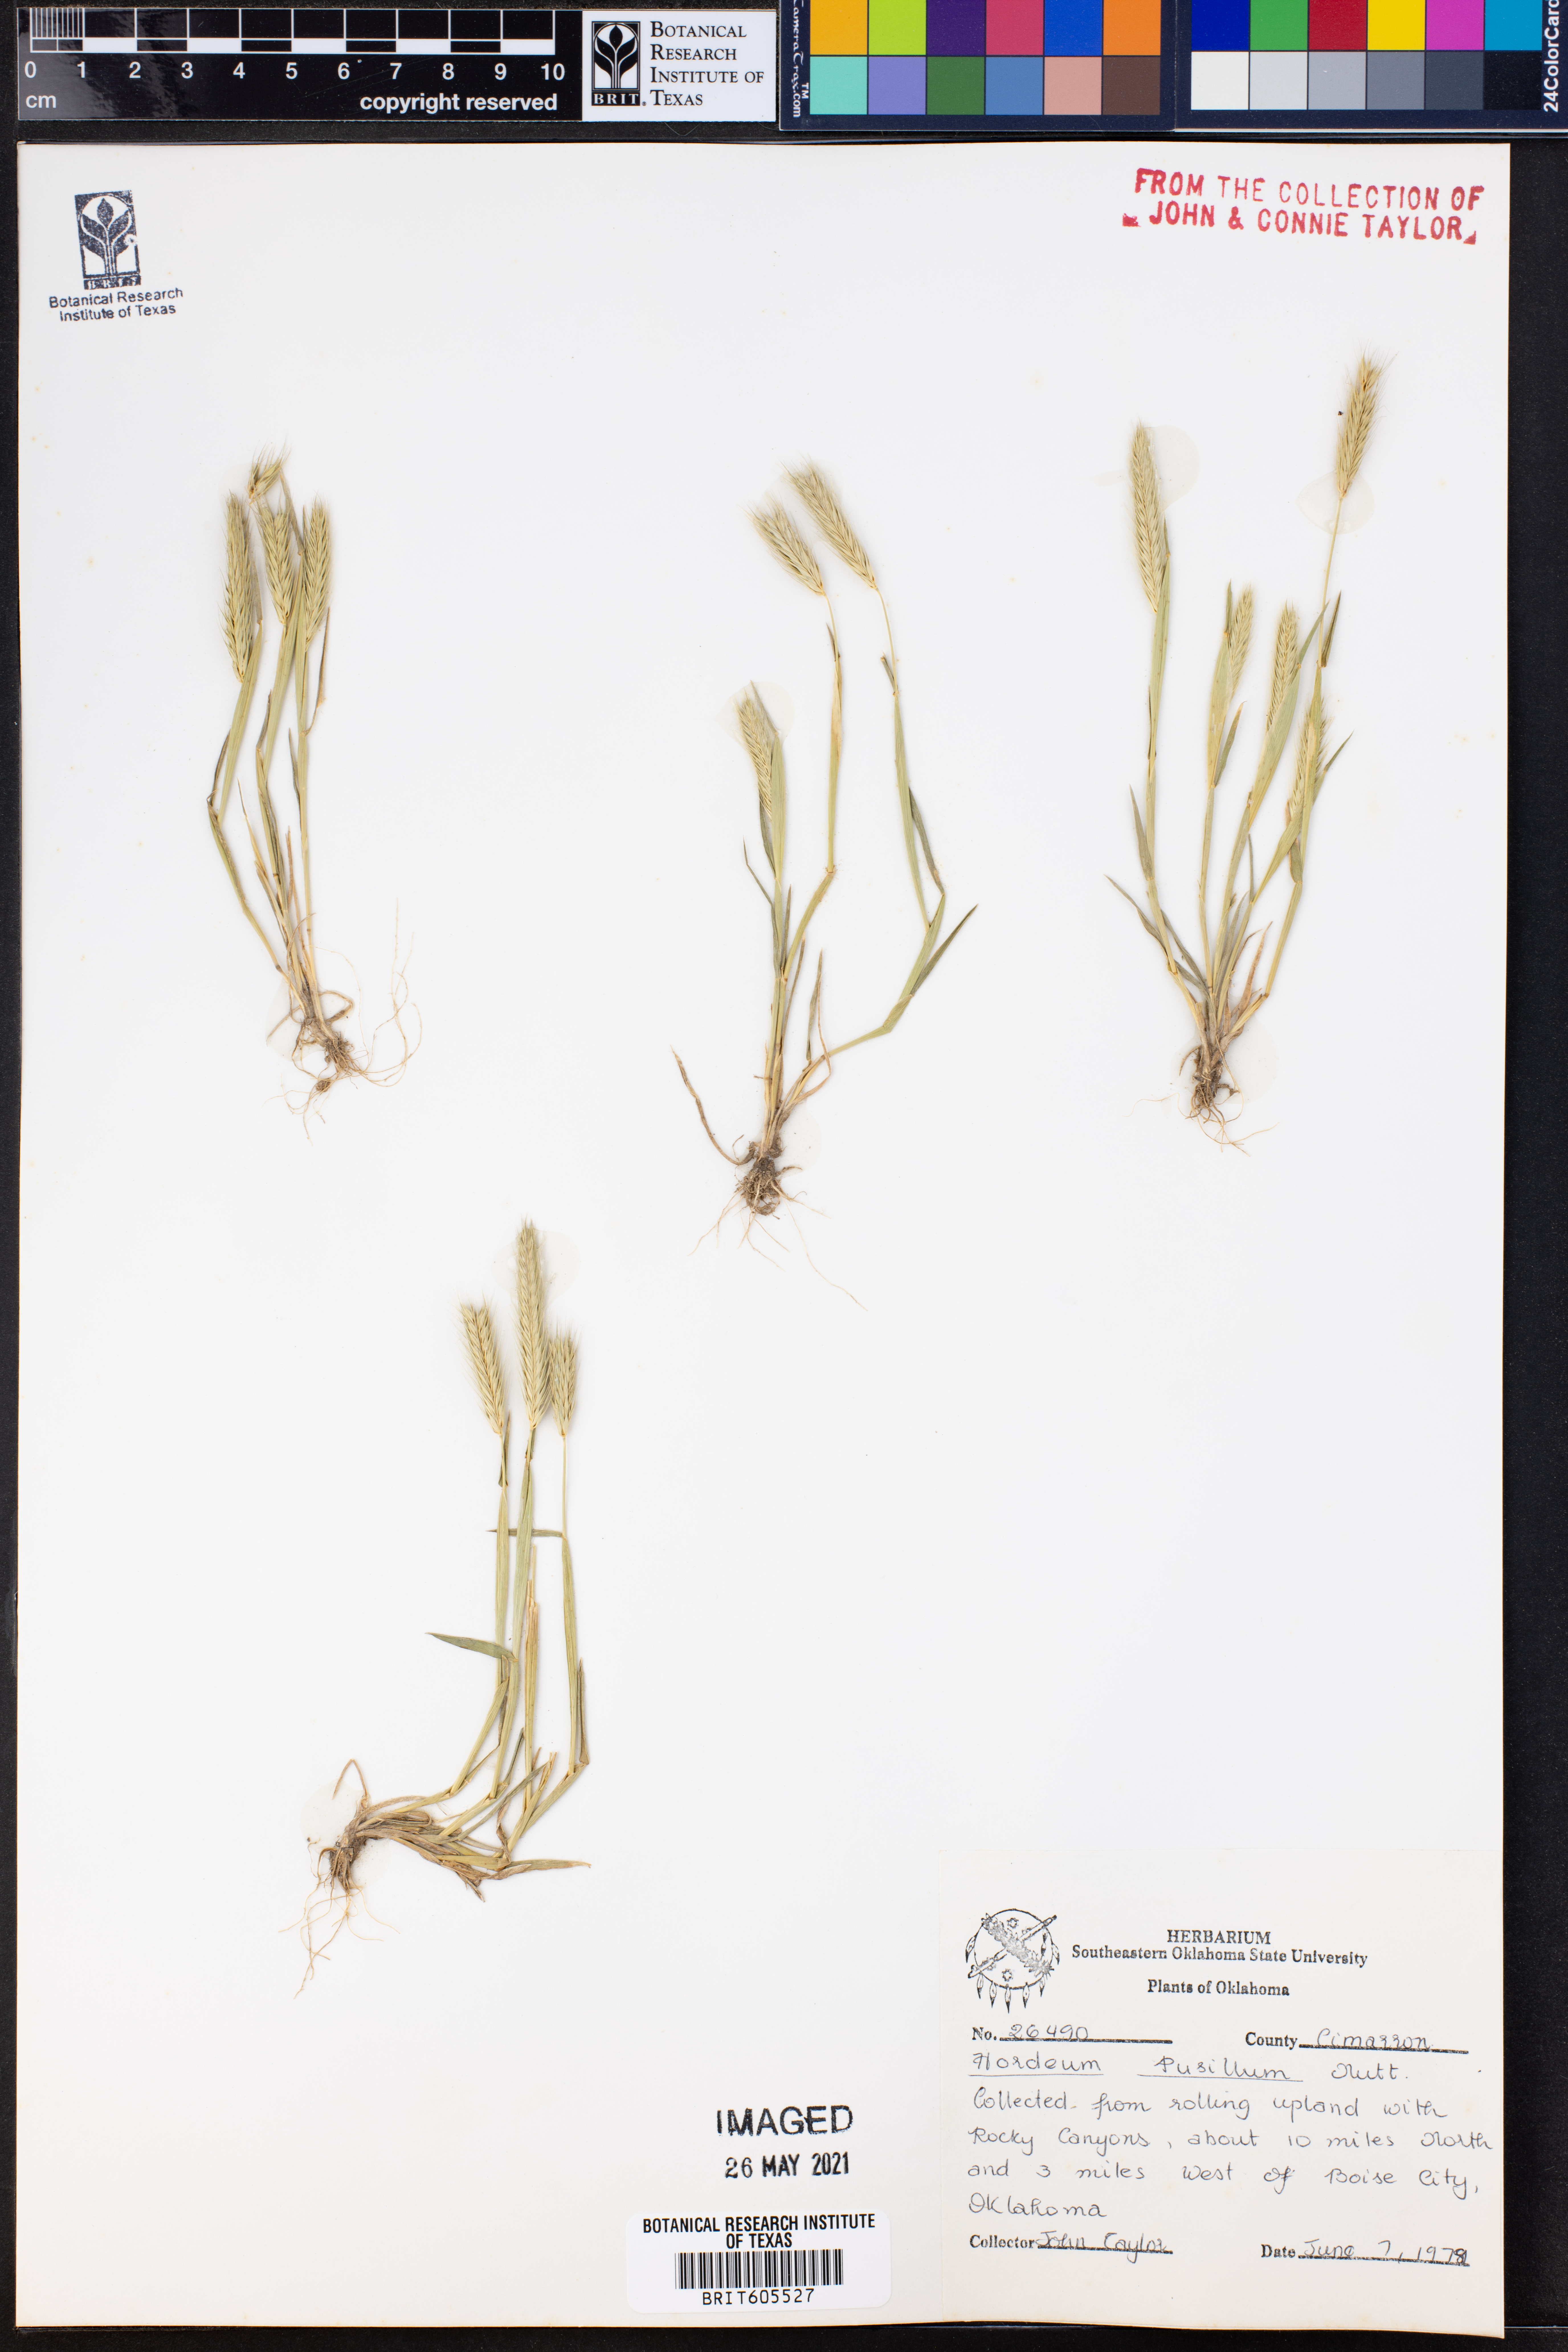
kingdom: Plantae
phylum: Tracheophyta
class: Liliopsida
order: Poales
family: Poaceae
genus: Hordeum
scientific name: Hordeum pusillum
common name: Little barley
